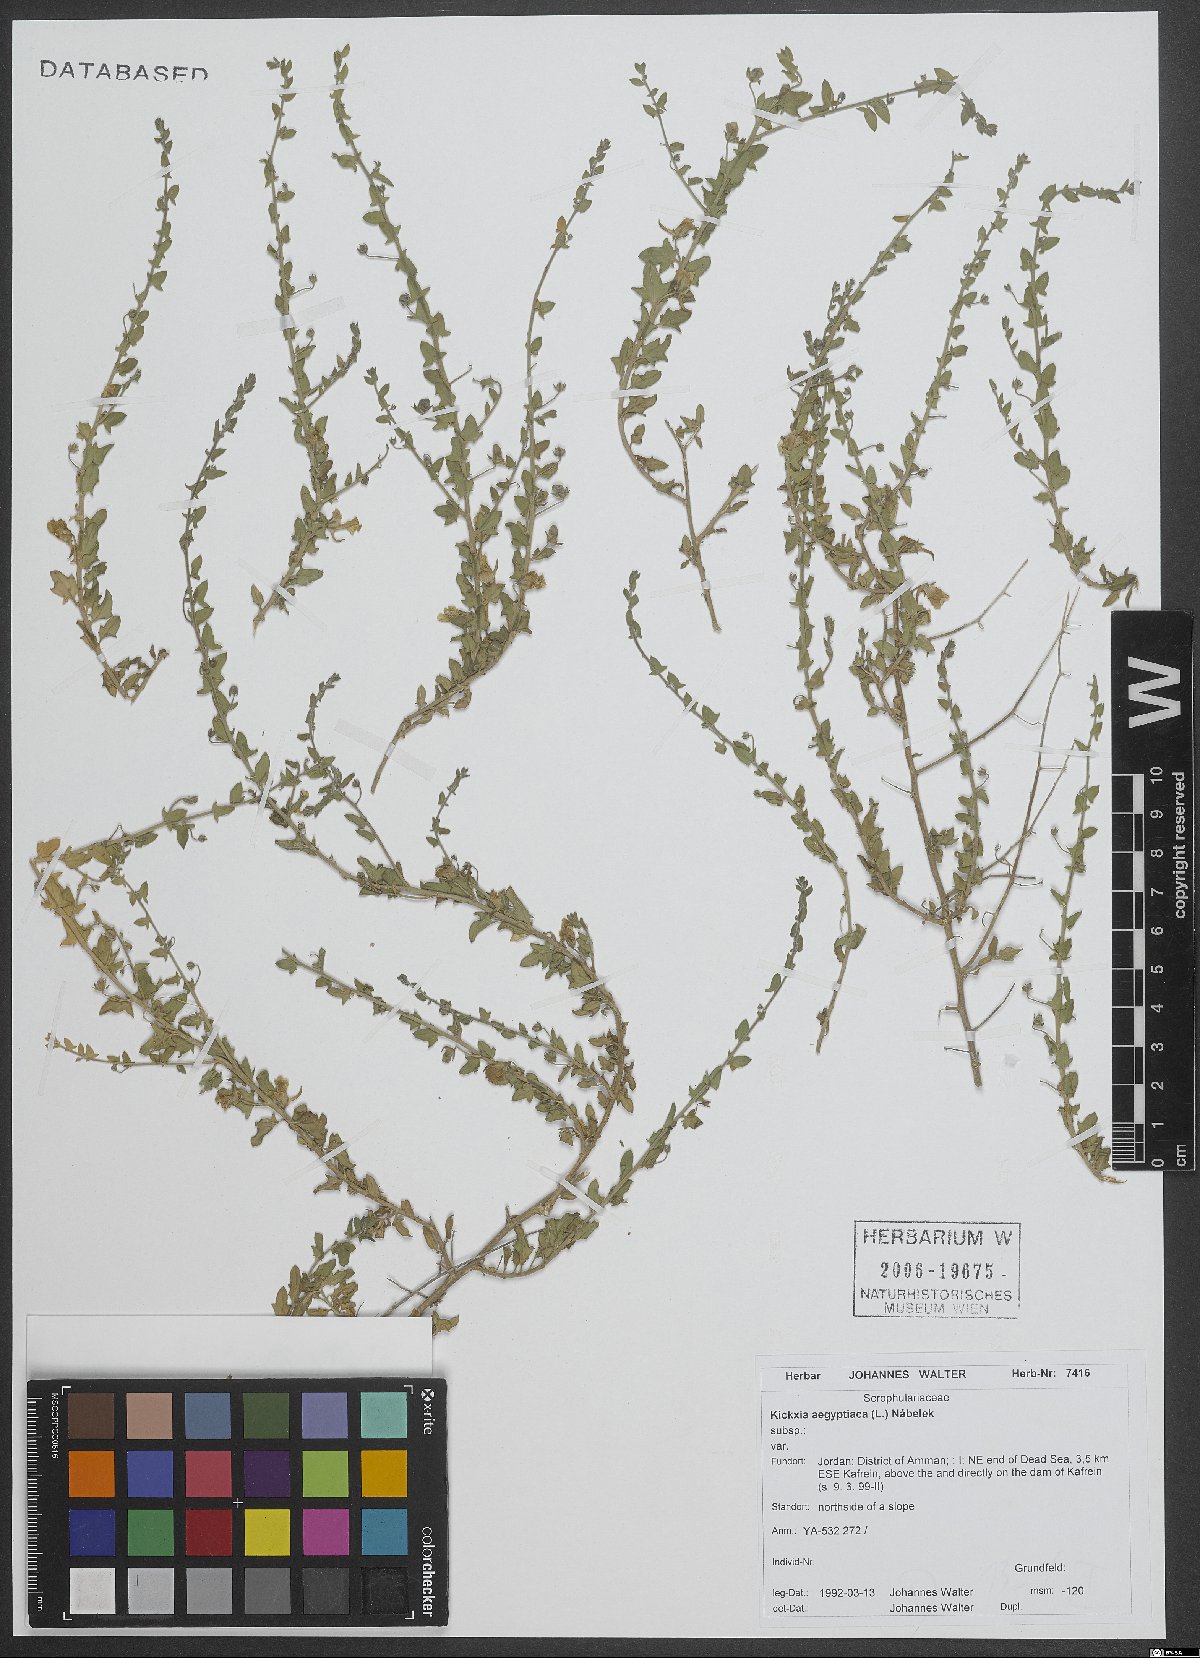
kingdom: Plantae
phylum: Tracheophyta
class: Magnoliopsida
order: Lamiales
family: Plantaginaceae
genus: Kickxia
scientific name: Kickxia aegyptiaca
